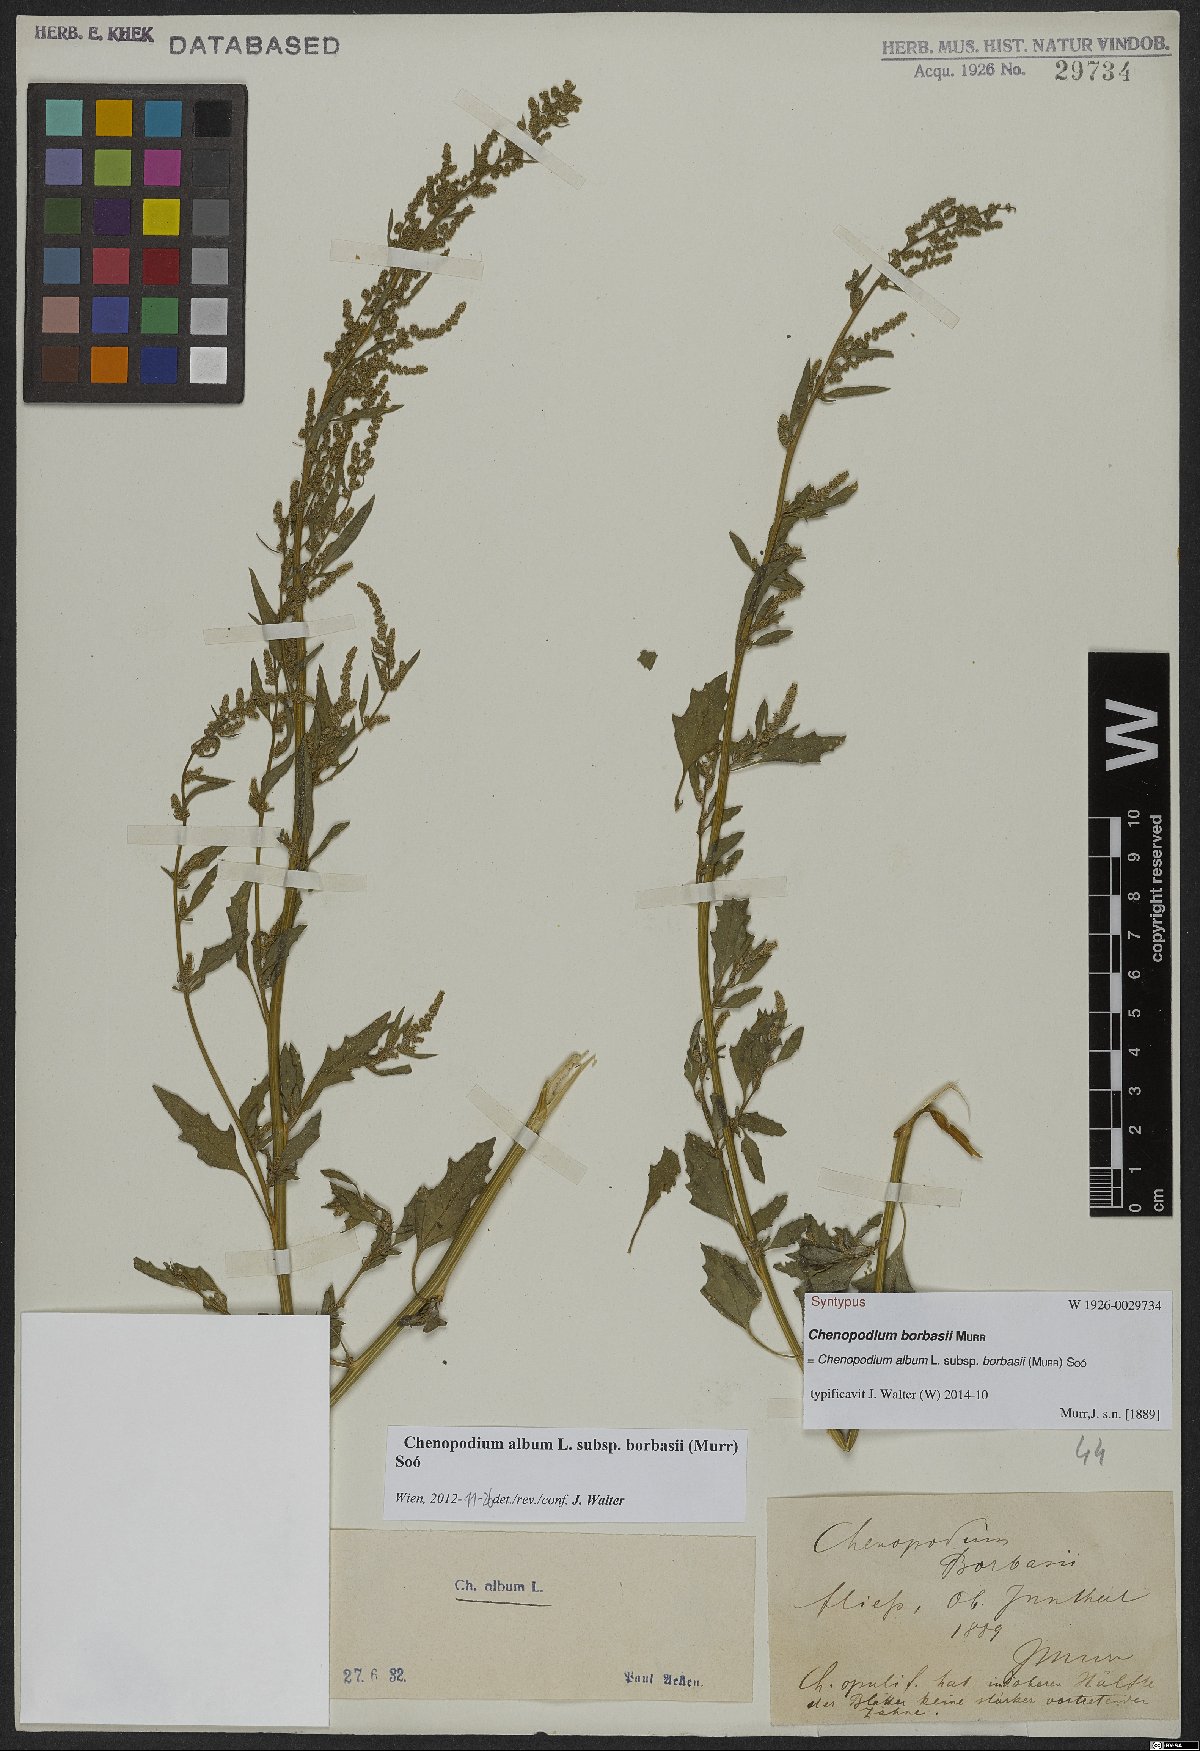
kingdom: Plantae
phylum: Tracheophyta
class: Magnoliopsida
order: Caryophyllales
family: Amaranthaceae
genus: Chenopodium
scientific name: Chenopodium borbasii
